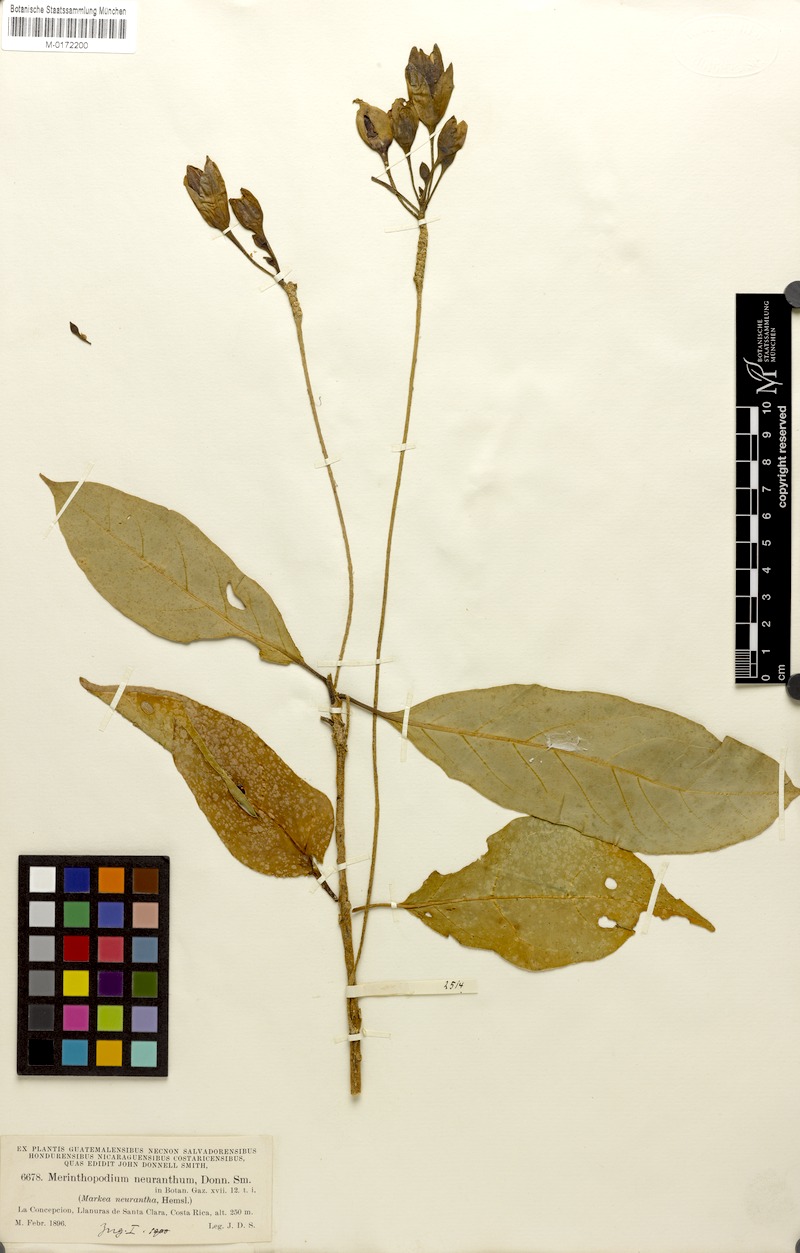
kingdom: Plantae
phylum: Tracheophyta
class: Magnoliopsida
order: Solanales
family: Solanaceae
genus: Merinthopodium
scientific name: Merinthopodium neuranthum
